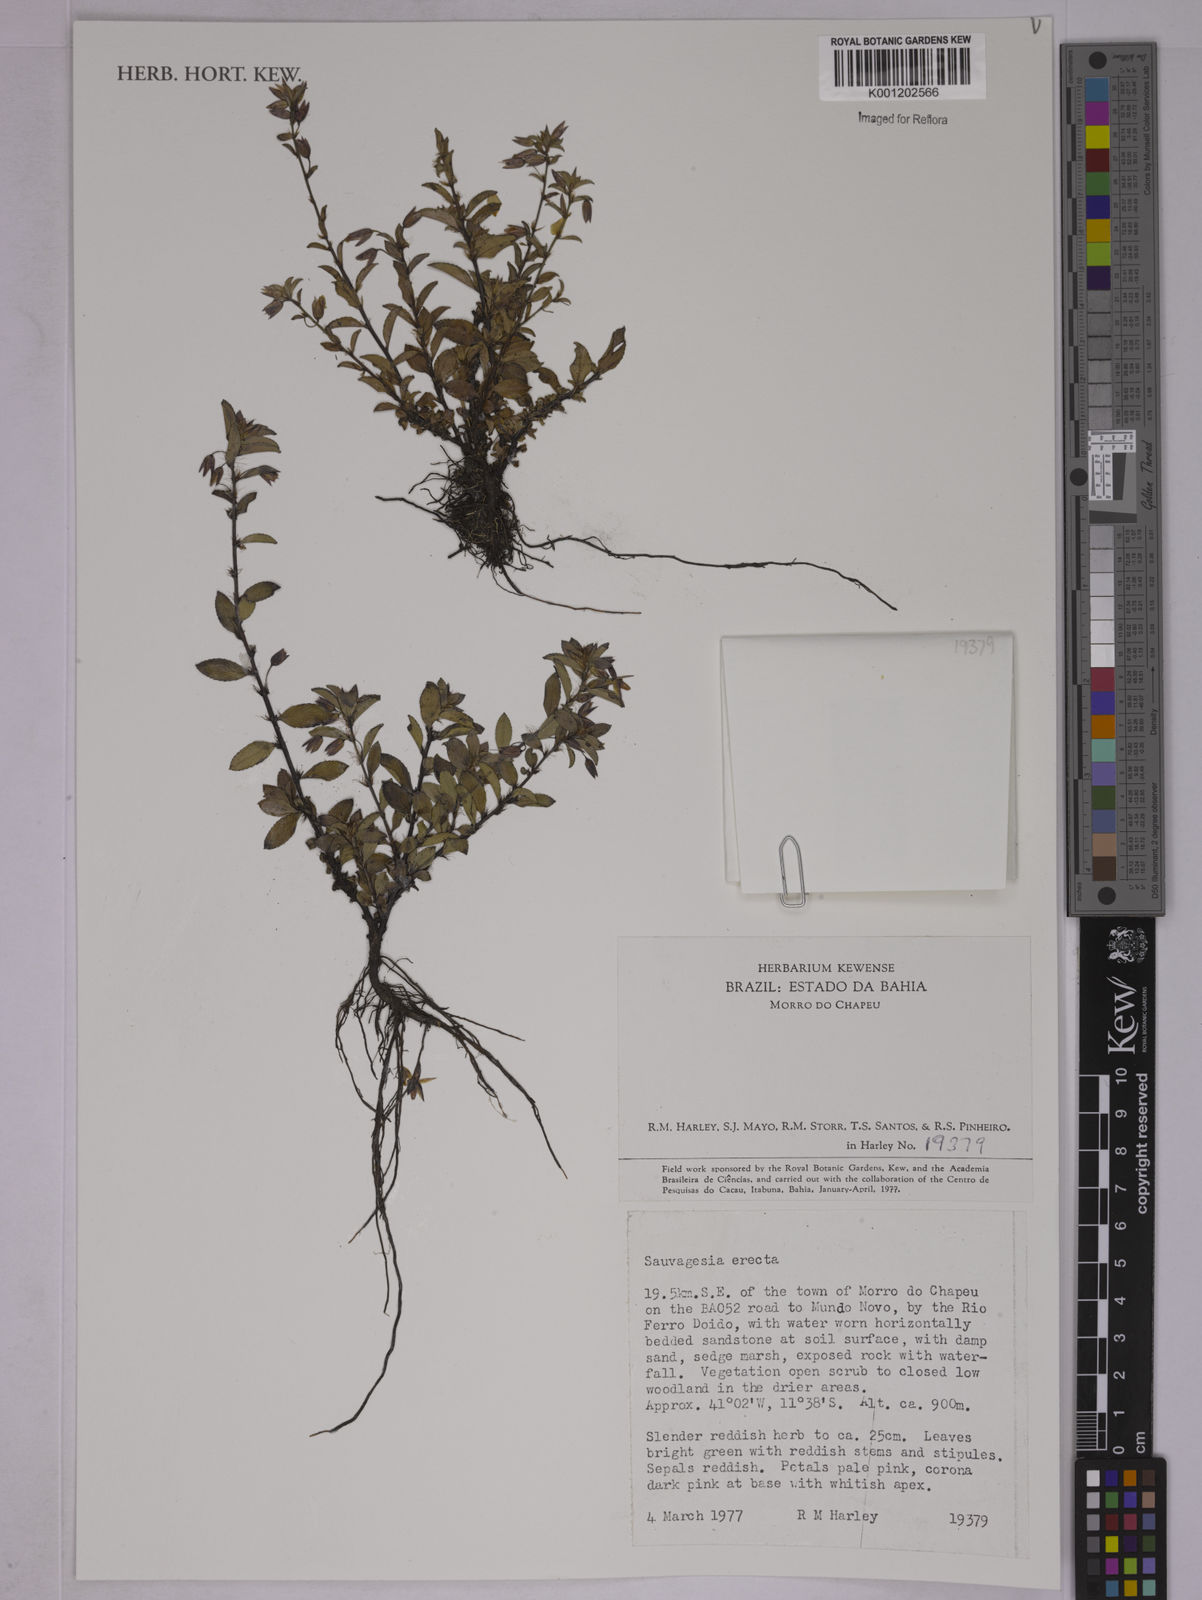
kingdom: Plantae
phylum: Tracheophyta
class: Magnoliopsida
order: Malpighiales
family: Ochnaceae
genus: Sauvagesia
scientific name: Sauvagesia erecta
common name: Creole tea
